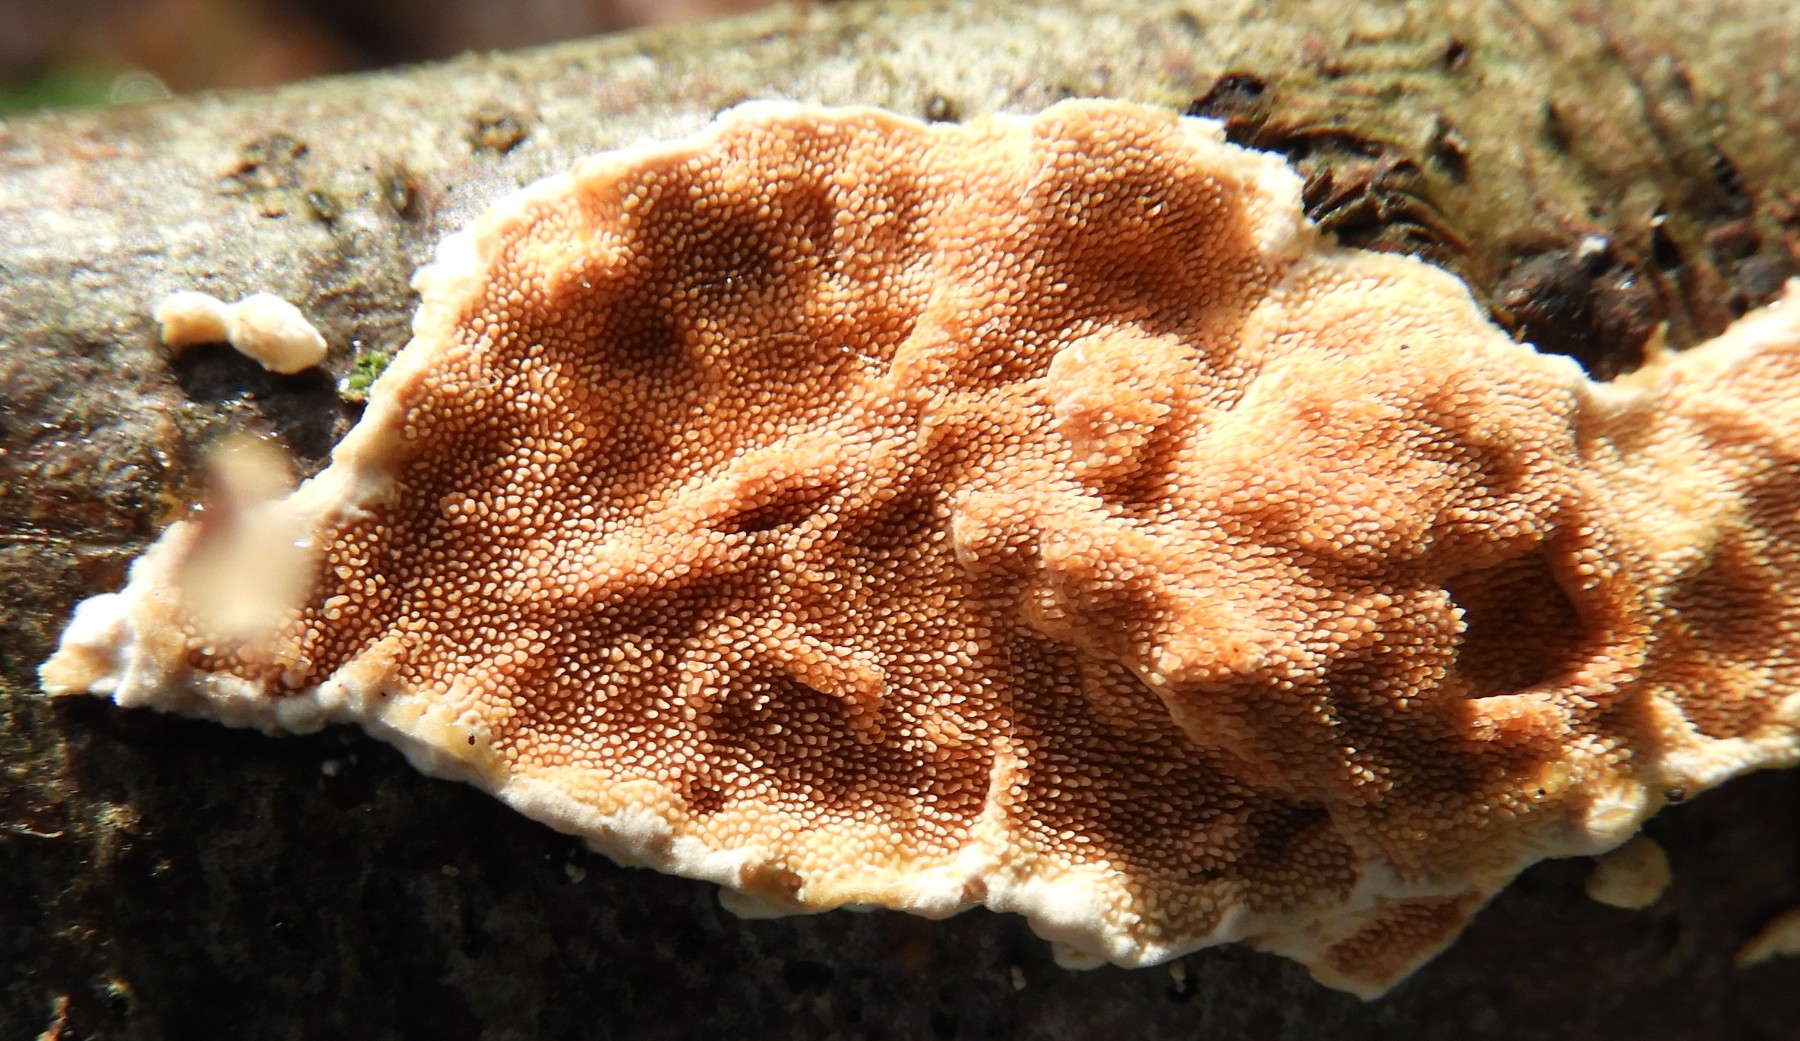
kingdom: Fungi
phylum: Basidiomycota
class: Agaricomycetes
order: Polyporales
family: Steccherinaceae
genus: Steccherinum
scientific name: Steccherinum ochraceum
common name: almindelig skønpig
